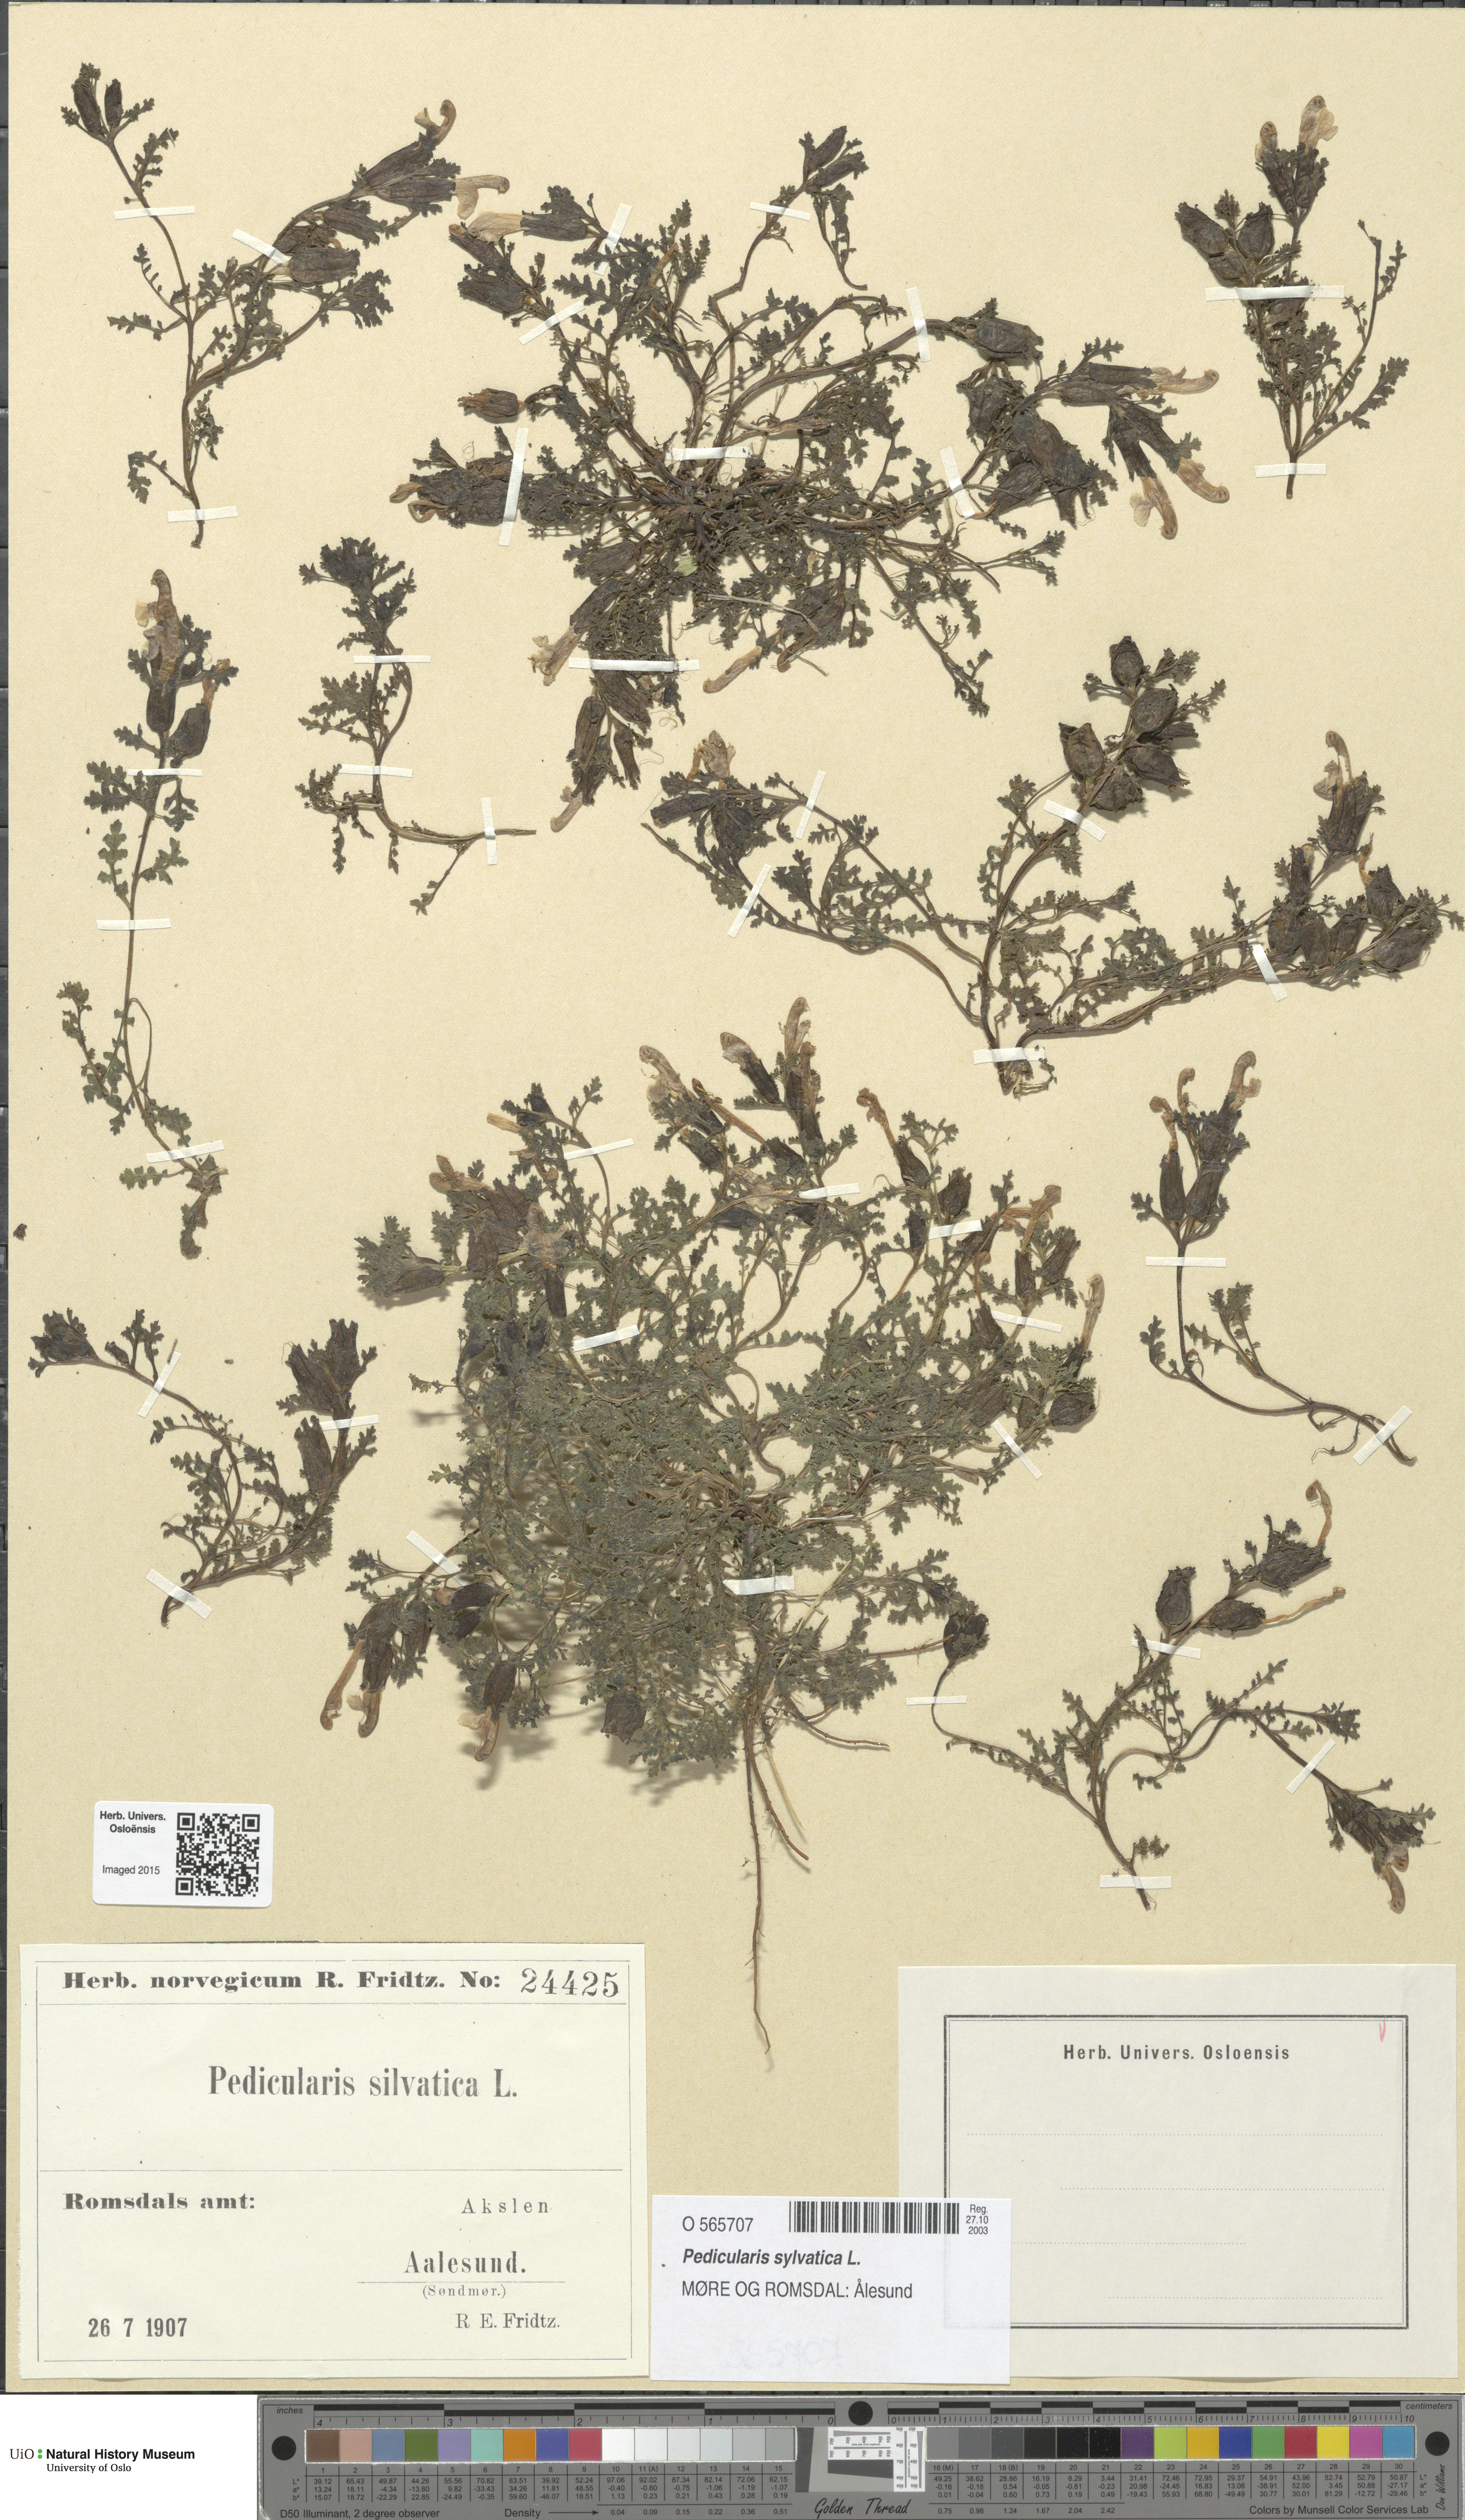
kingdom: Plantae
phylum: Tracheophyta
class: Magnoliopsida
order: Lamiales
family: Orobanchaceae
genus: Pedicularis
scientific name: Pedicularis sylvatica
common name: Lousewort
